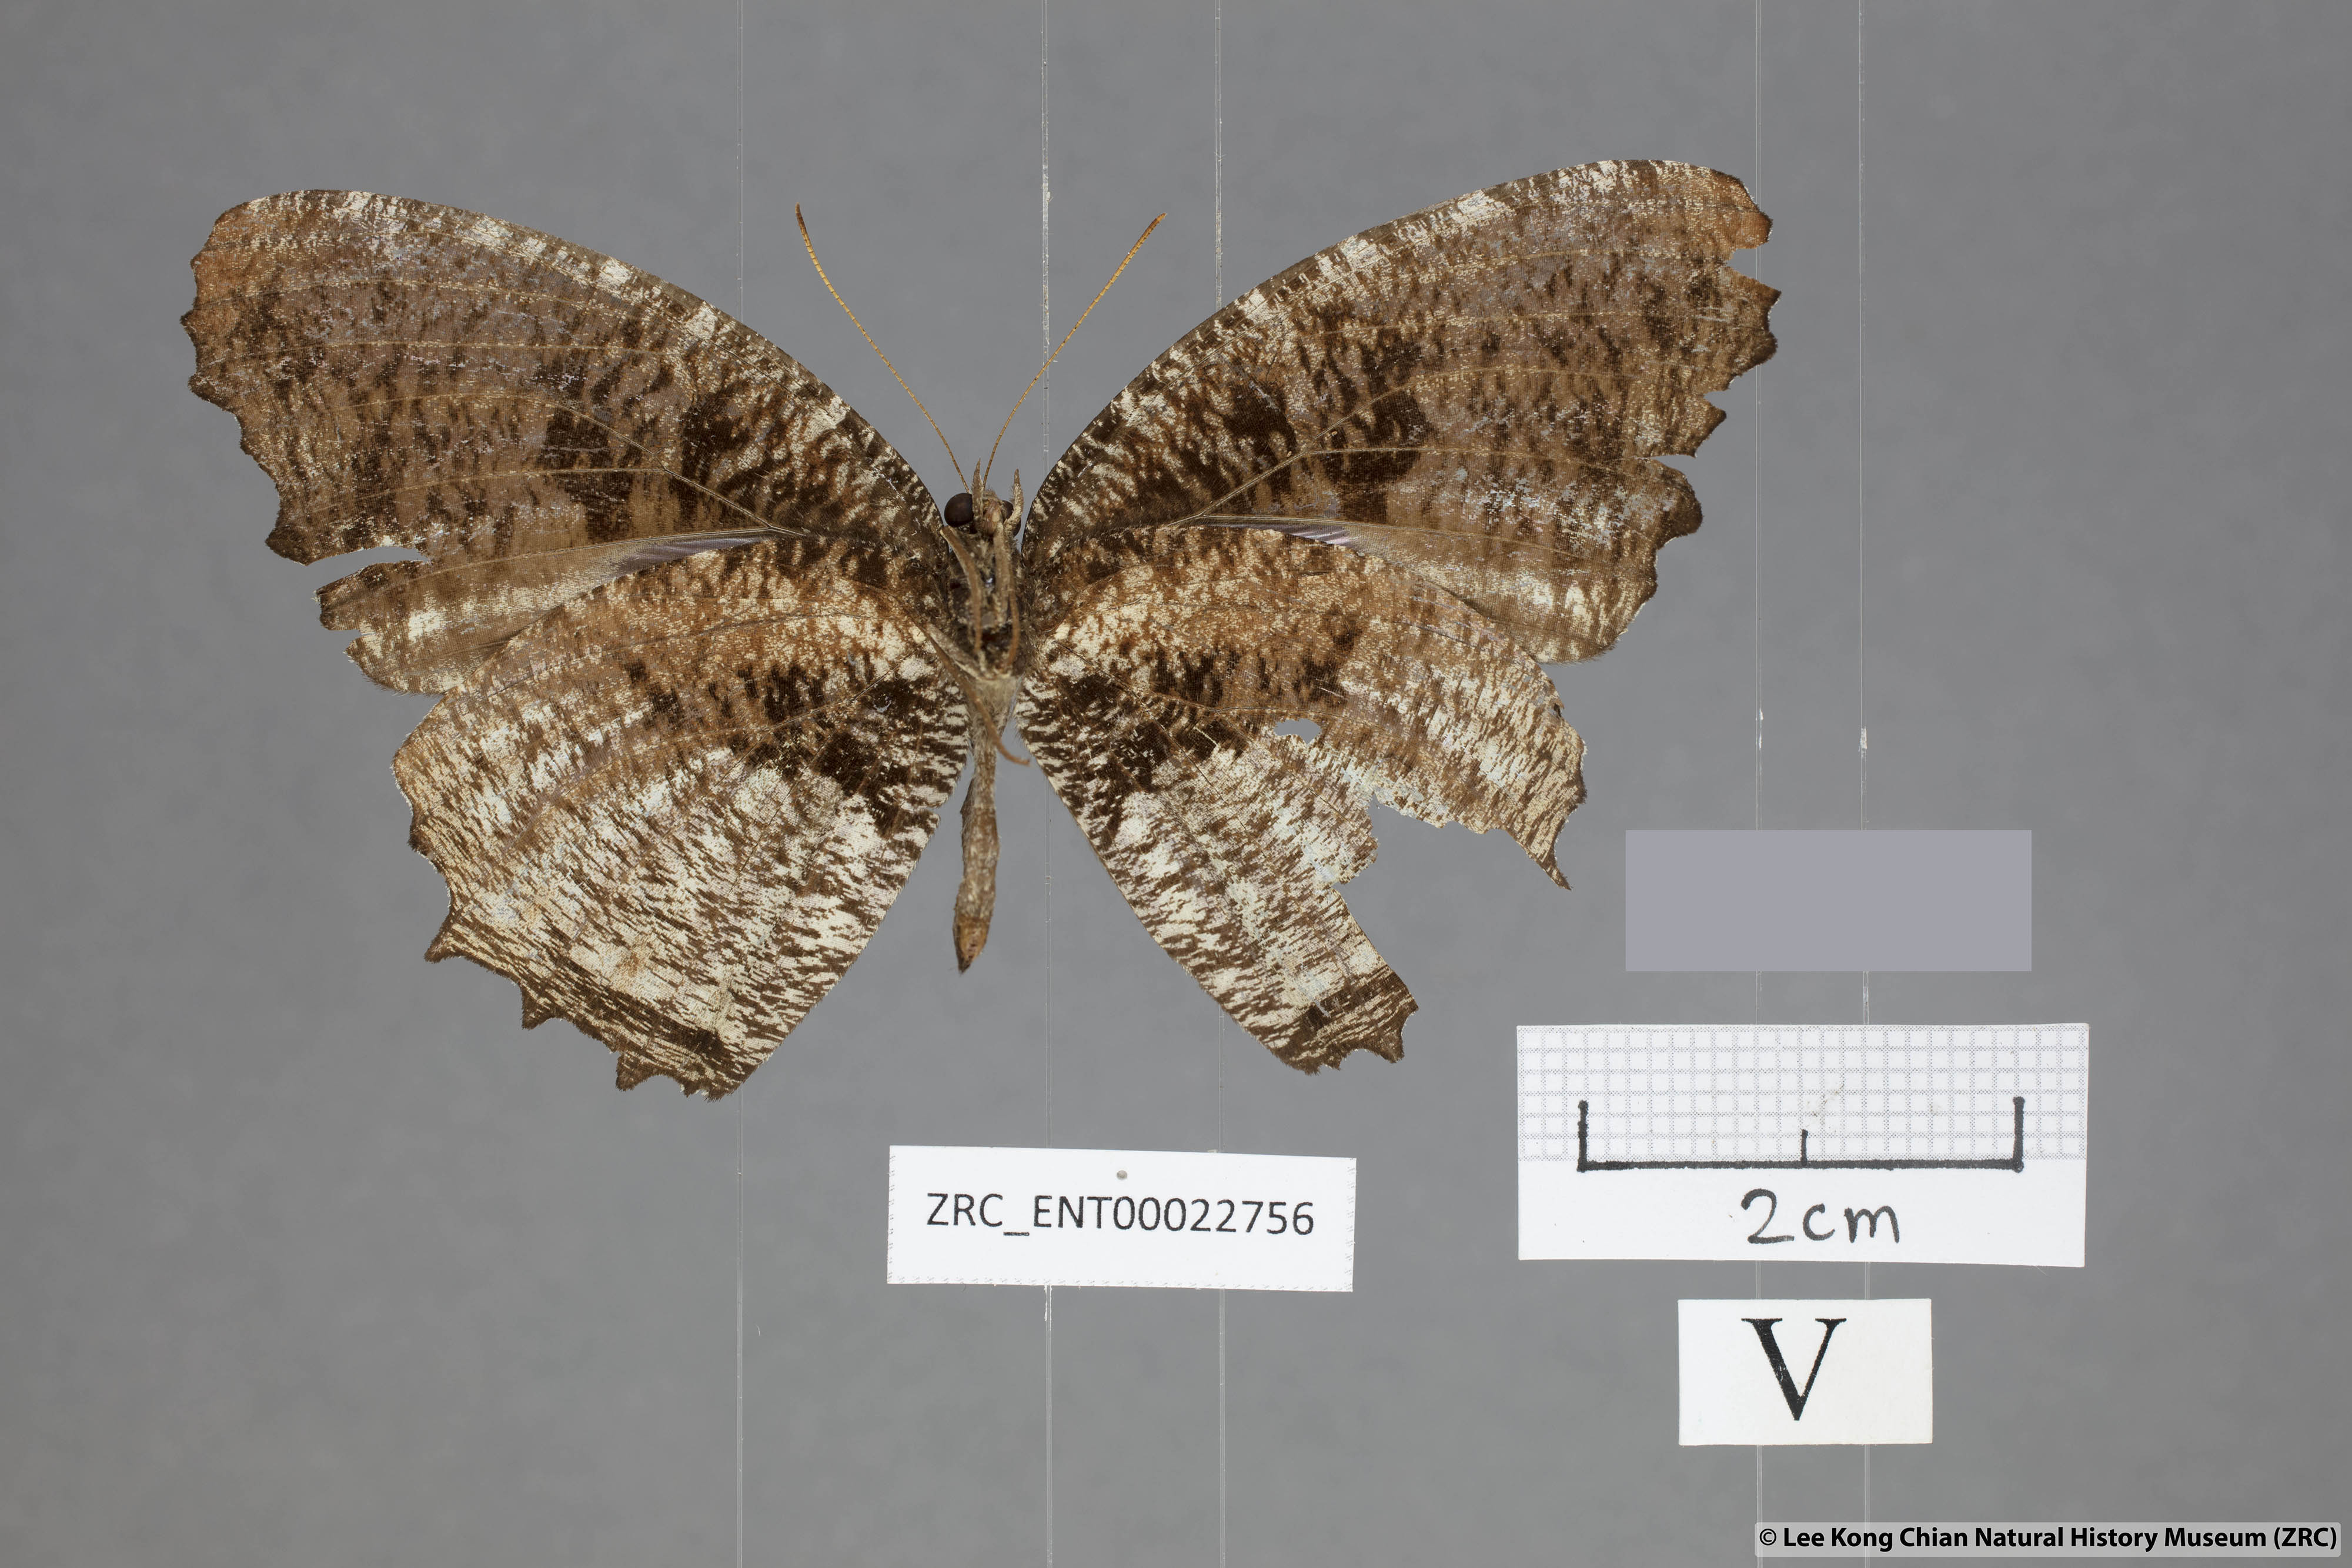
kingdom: Animalia
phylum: Arthropoda
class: Insecta
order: Lepidoptera
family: Nymphalidae
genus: Elymnias
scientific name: Elymnias nesaea
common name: Tiger palmfly
